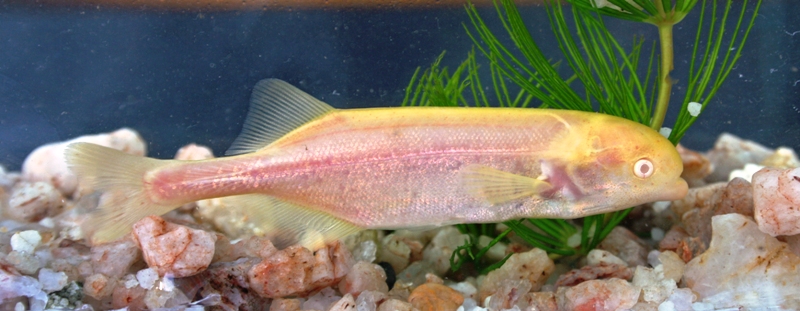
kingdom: Animalia
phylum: Chordata
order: Osteoglossiformes
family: Mormyridae
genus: Marcusenius
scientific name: Marcusenius pongolensis
